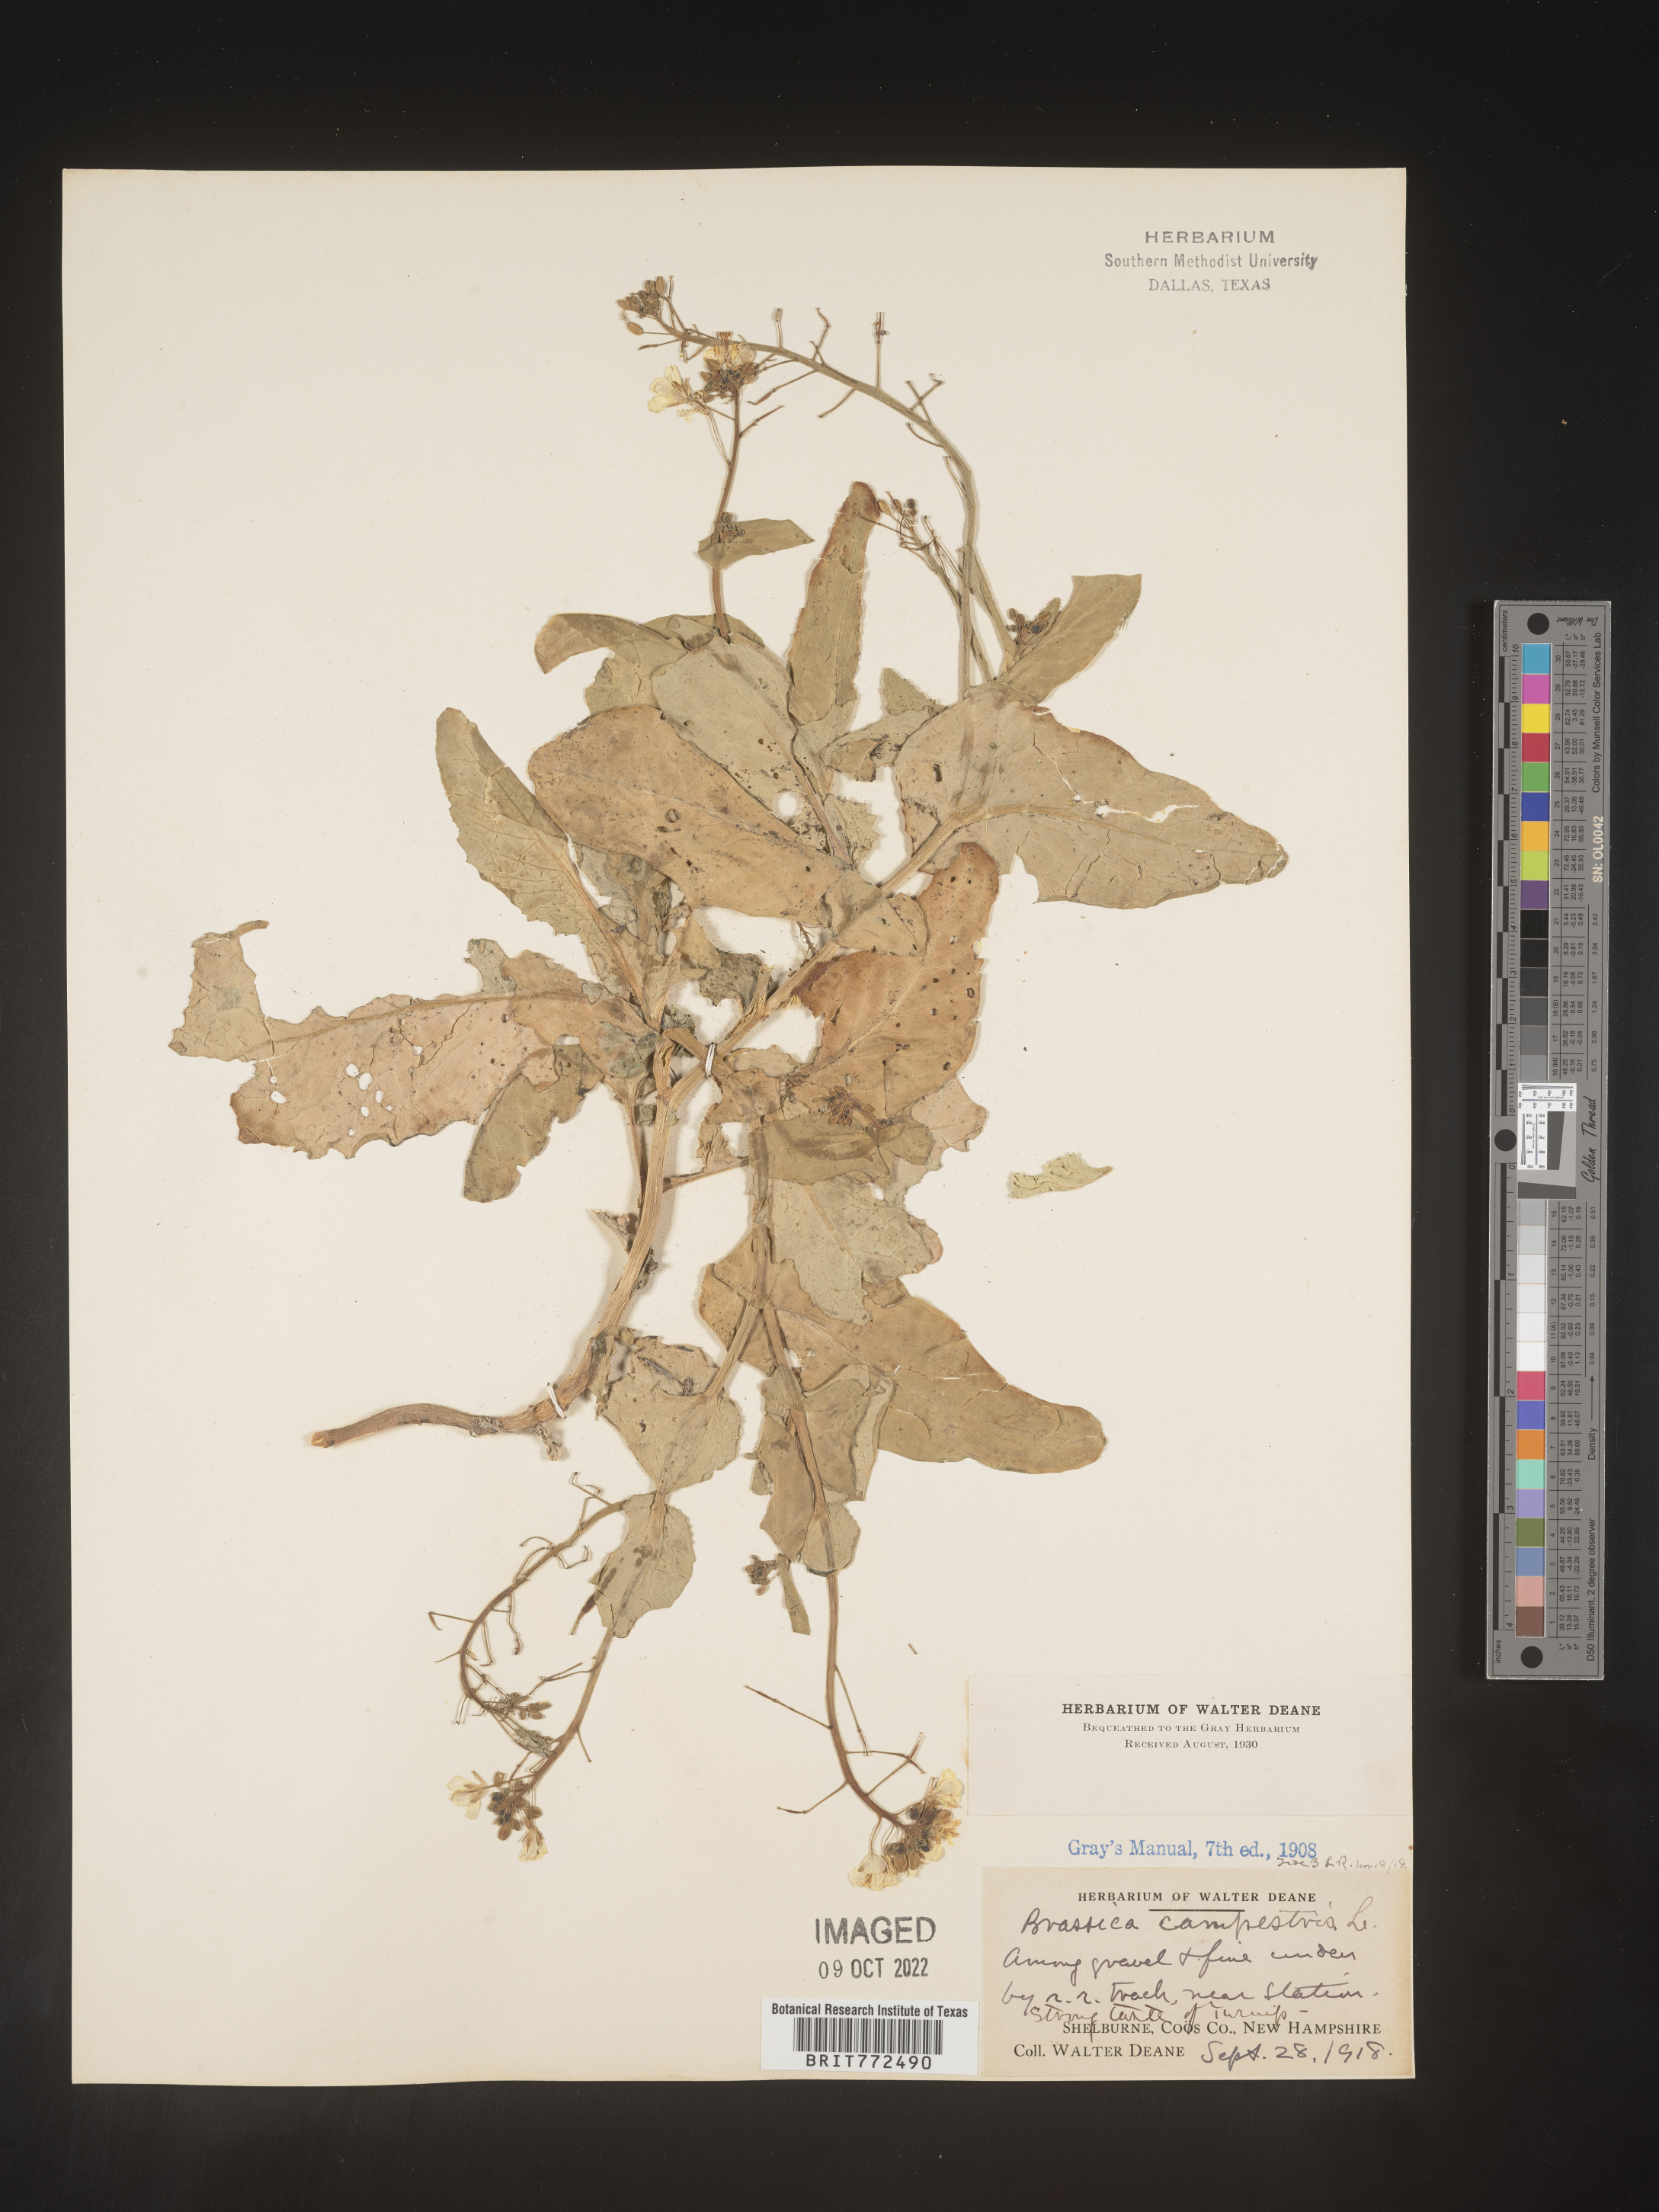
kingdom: Plantae
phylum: Tracheophyta
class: Magnoliopsida
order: Brassicales
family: Brassicaceae
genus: Brassica
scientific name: Brassica
